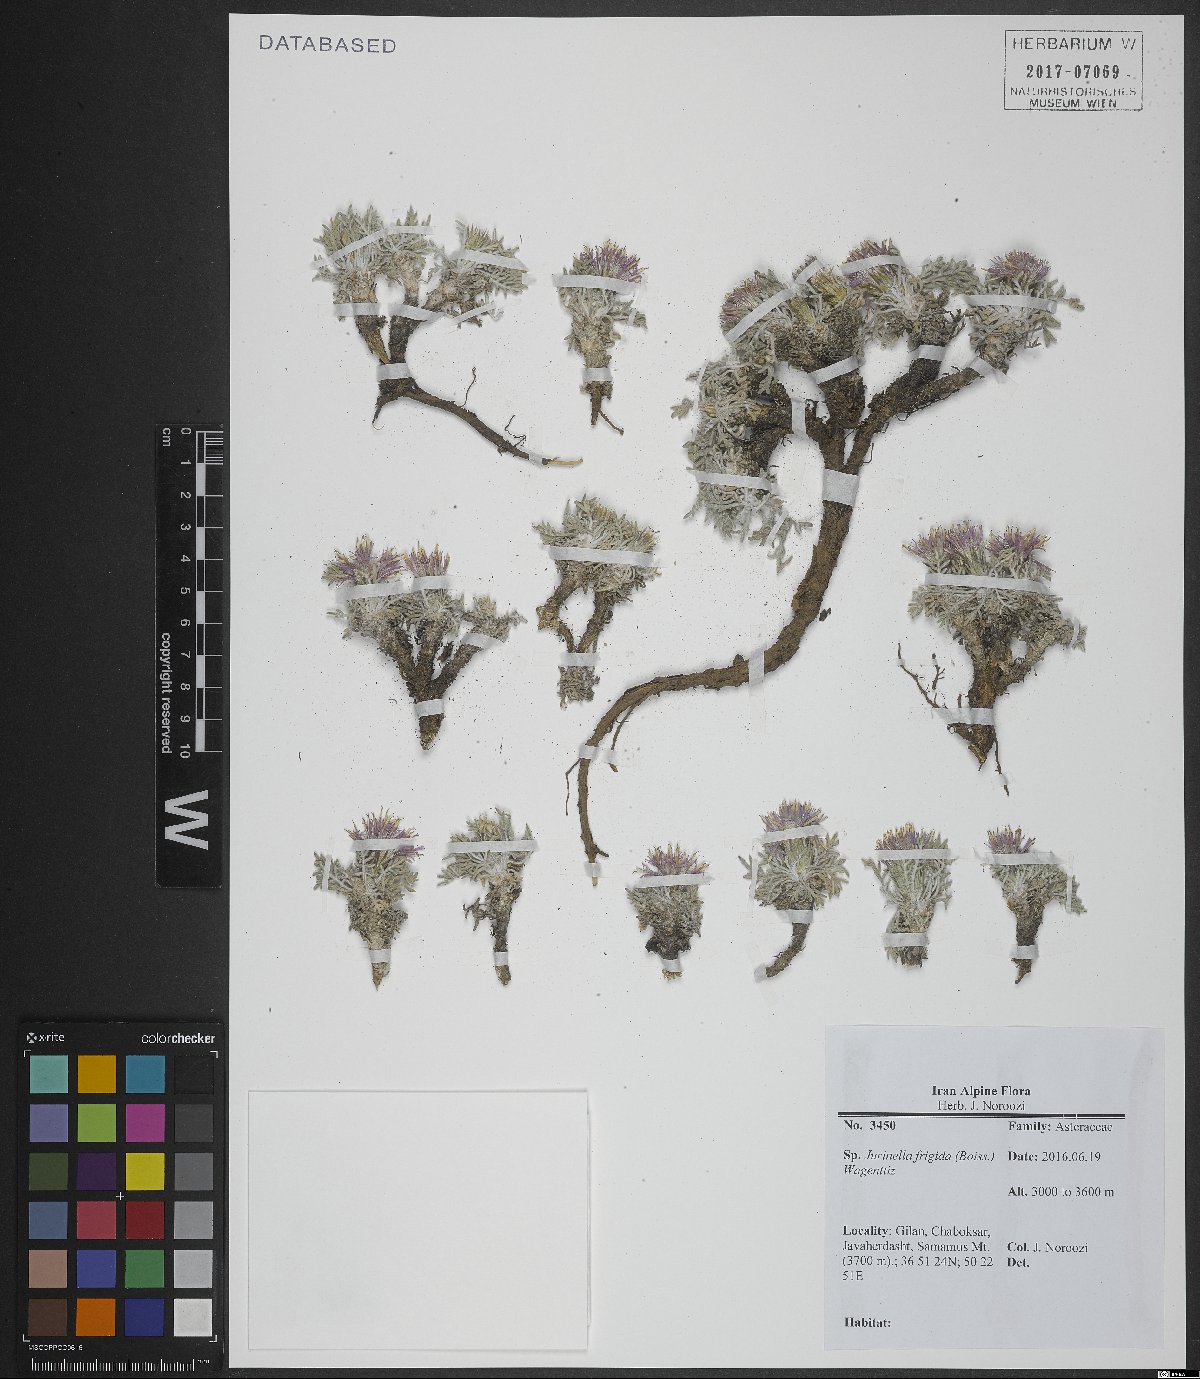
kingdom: Plantae
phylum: Tracheophyta
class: Magnoliopsida
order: Asterales
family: Asteraceae
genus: Jurinea
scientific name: Jurinea frigida
